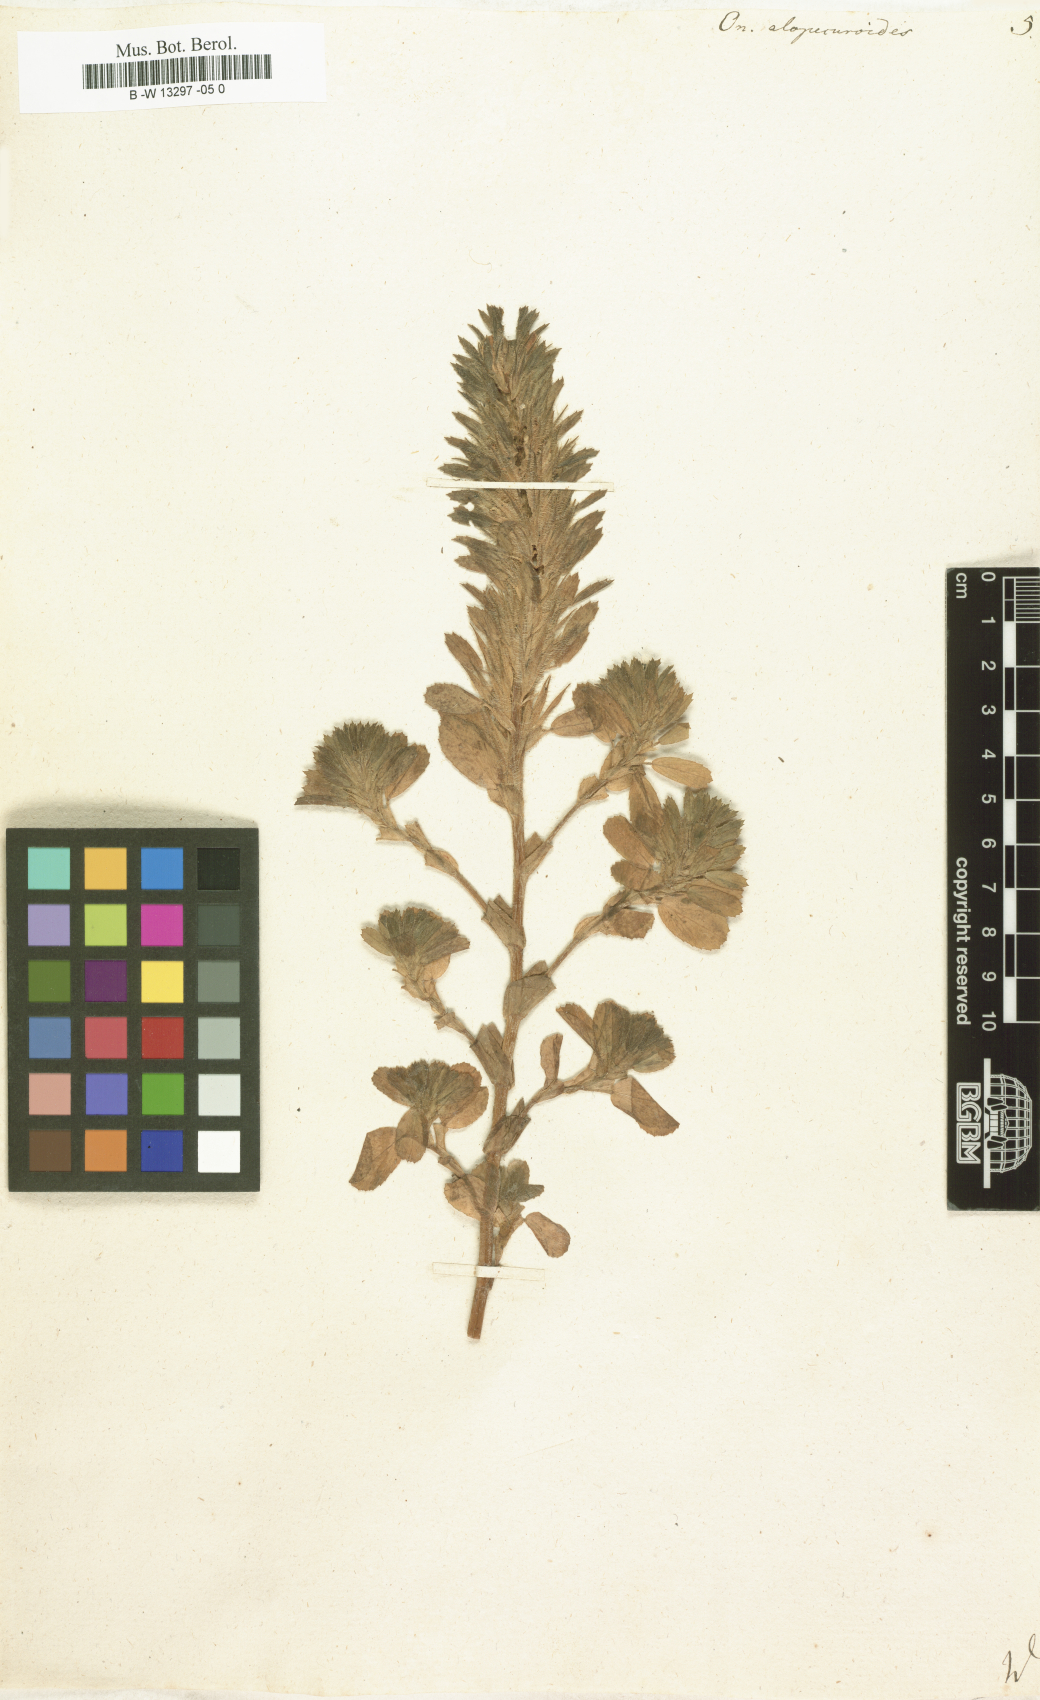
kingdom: Plantae
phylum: Tracheophyta
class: Magnoliopsida
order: Fabales
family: Fabaceae
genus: Ononis
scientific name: Ononis alopecuroides
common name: Salzmann's restharrow
